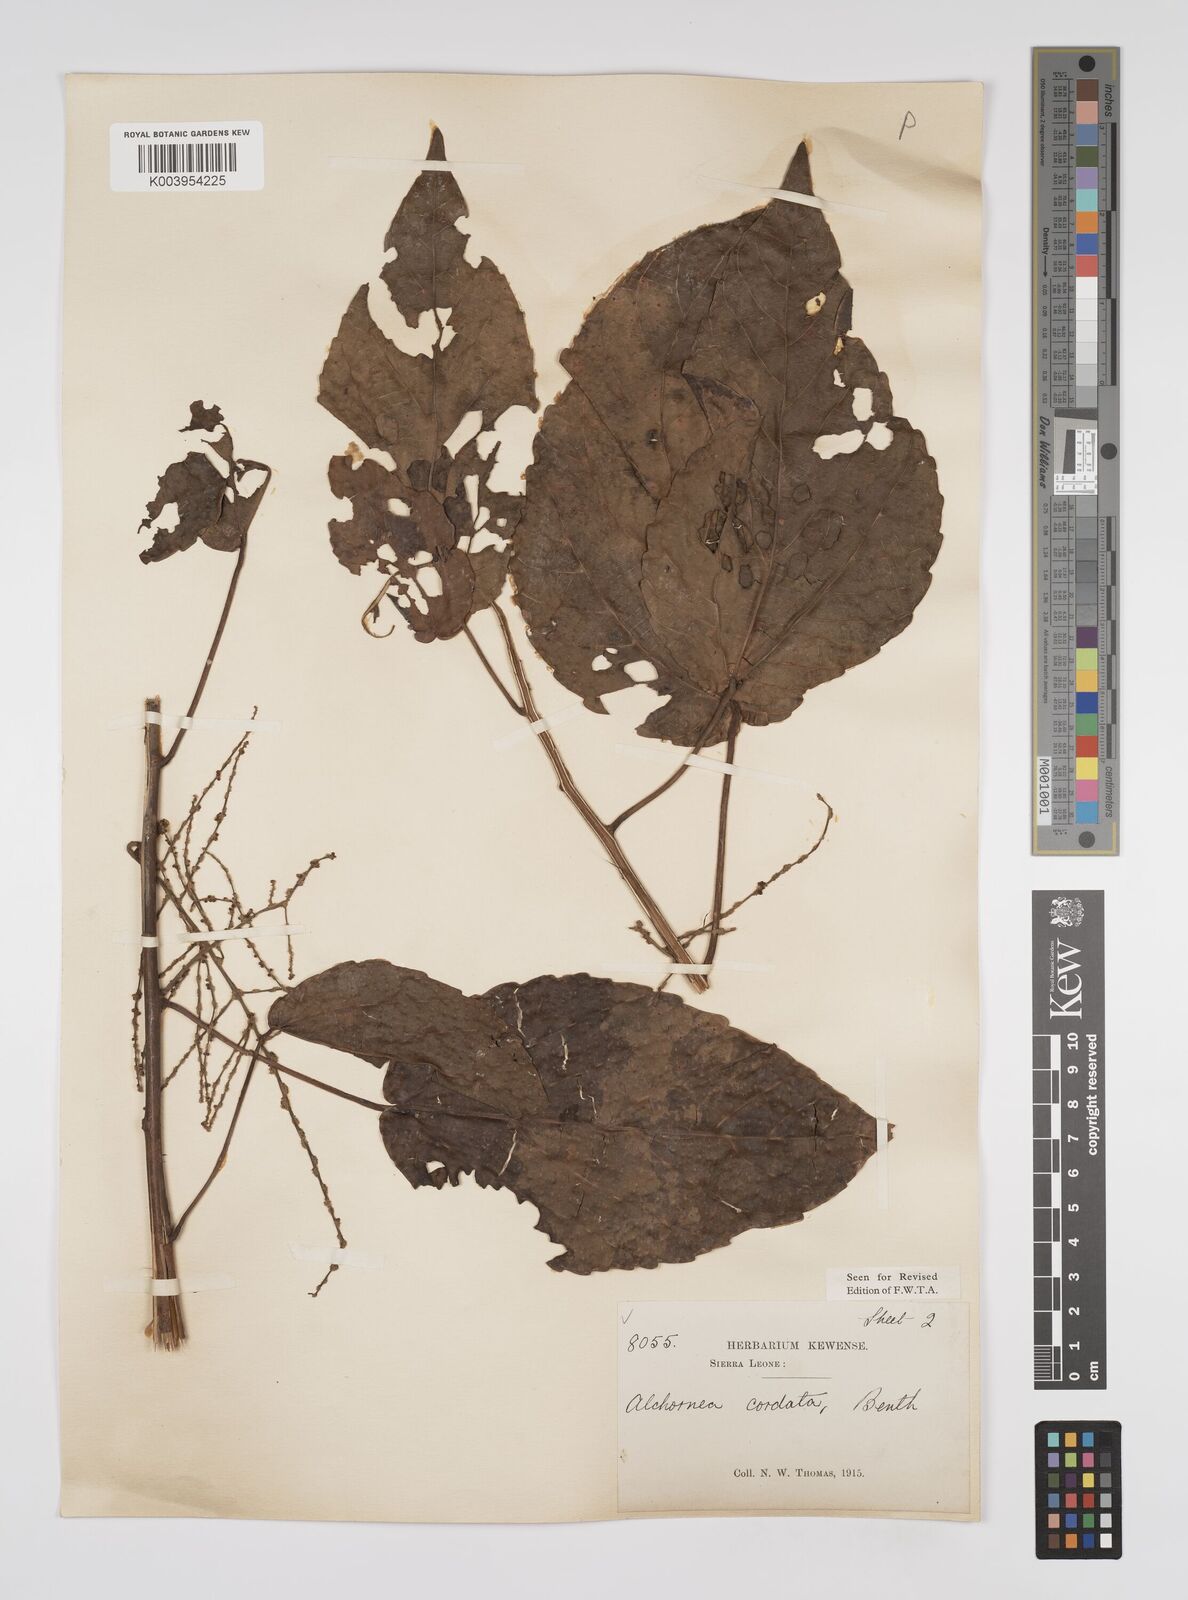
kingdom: Plantae
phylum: Tracheophyta
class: Magnoliopsida
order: Malpighiales
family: Euphorbiaceae
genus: Alchornea
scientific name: Alchornea cordifolia
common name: Christmasbush
